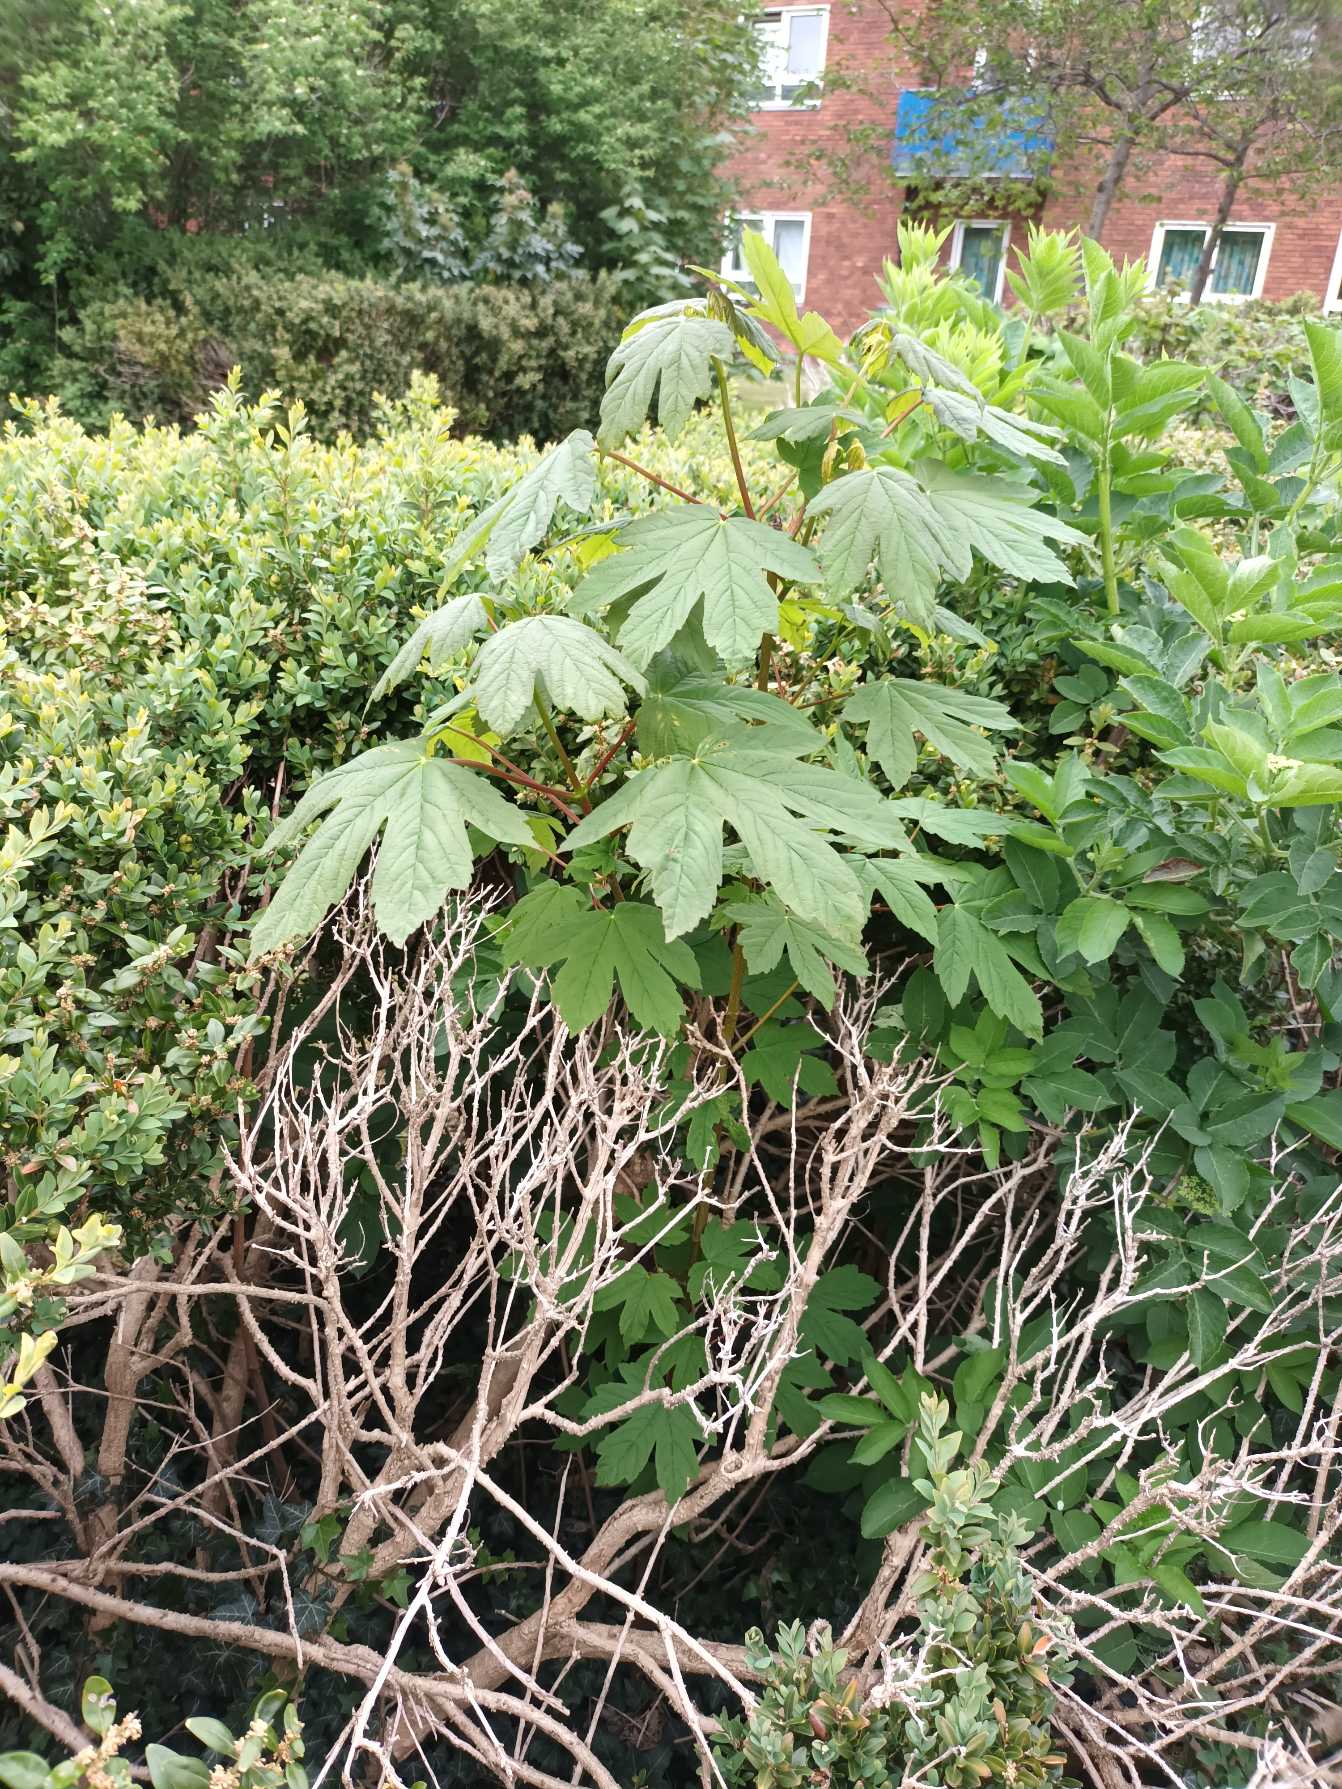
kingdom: Plantae
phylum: Tracheophyta
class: Magnoliopsida
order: Sapindales
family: Sapindaceae
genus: Acer
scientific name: Acer pseudoplatanus
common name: Ahorn
